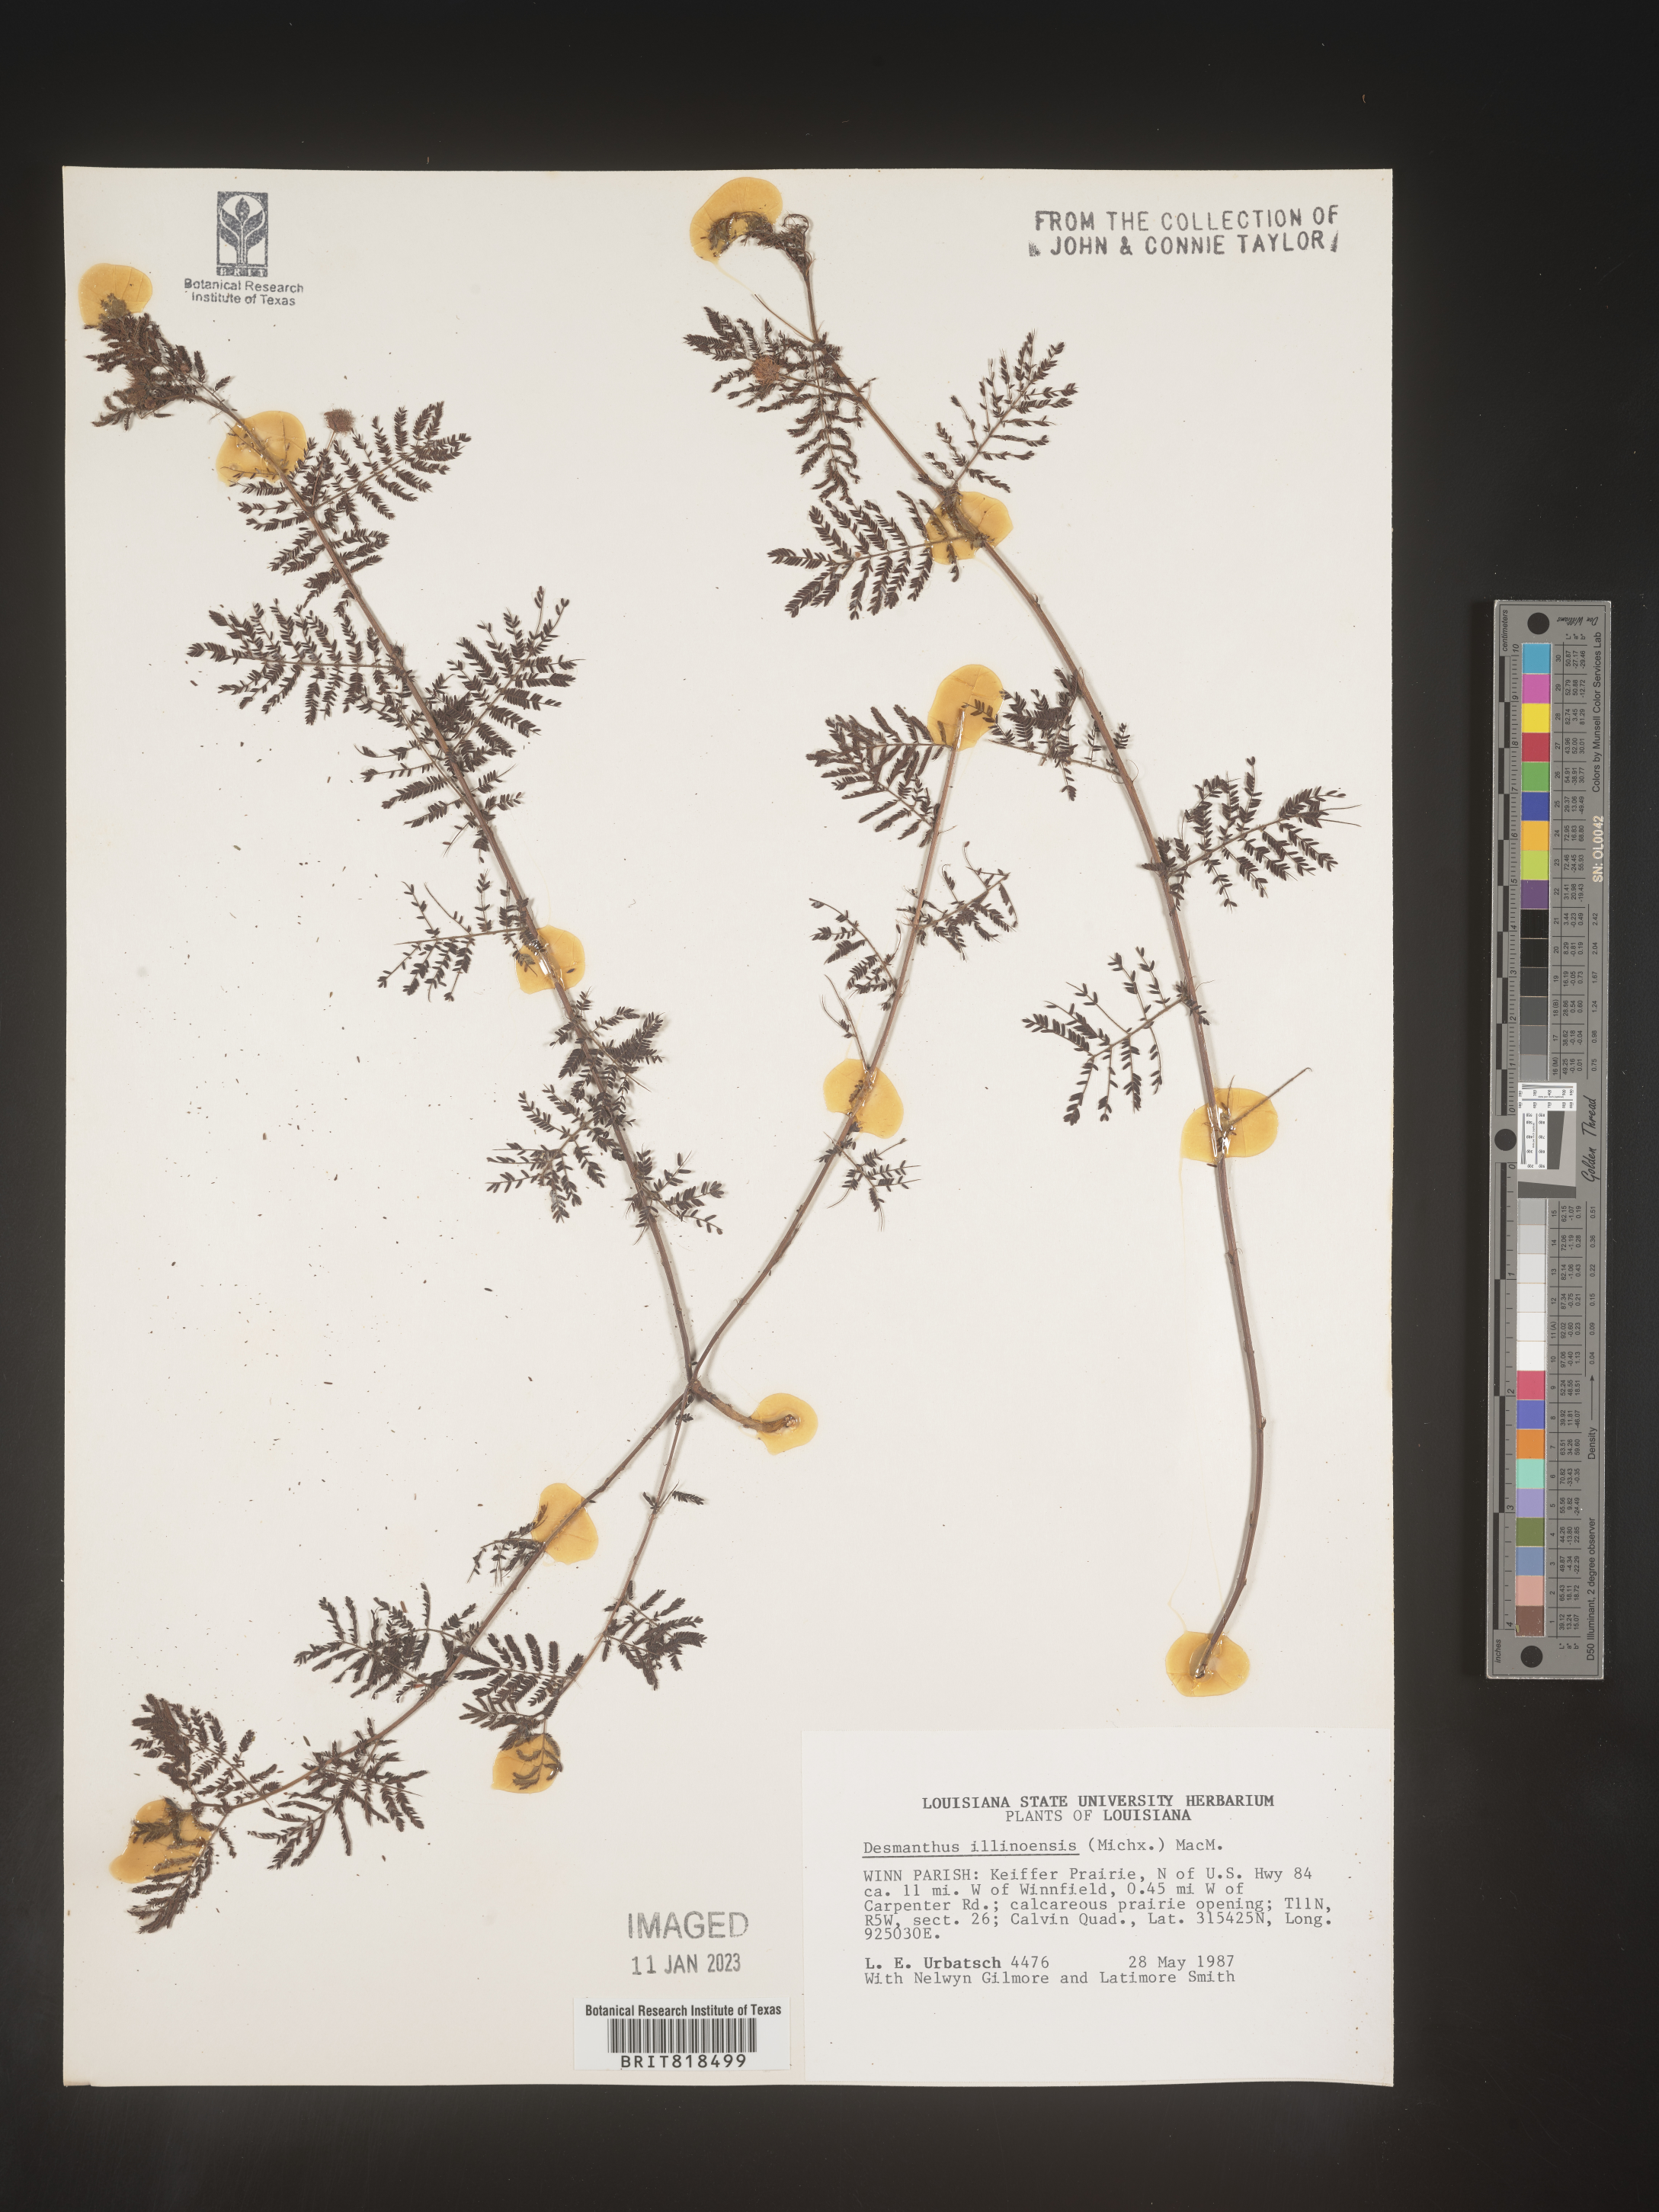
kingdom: Plantae
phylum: Tracheophyta
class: Magnoliopsida
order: Fabales
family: Fabaceae
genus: Desmanthus
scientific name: Desmanthus illinoensis
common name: Illinois bundle-flower
